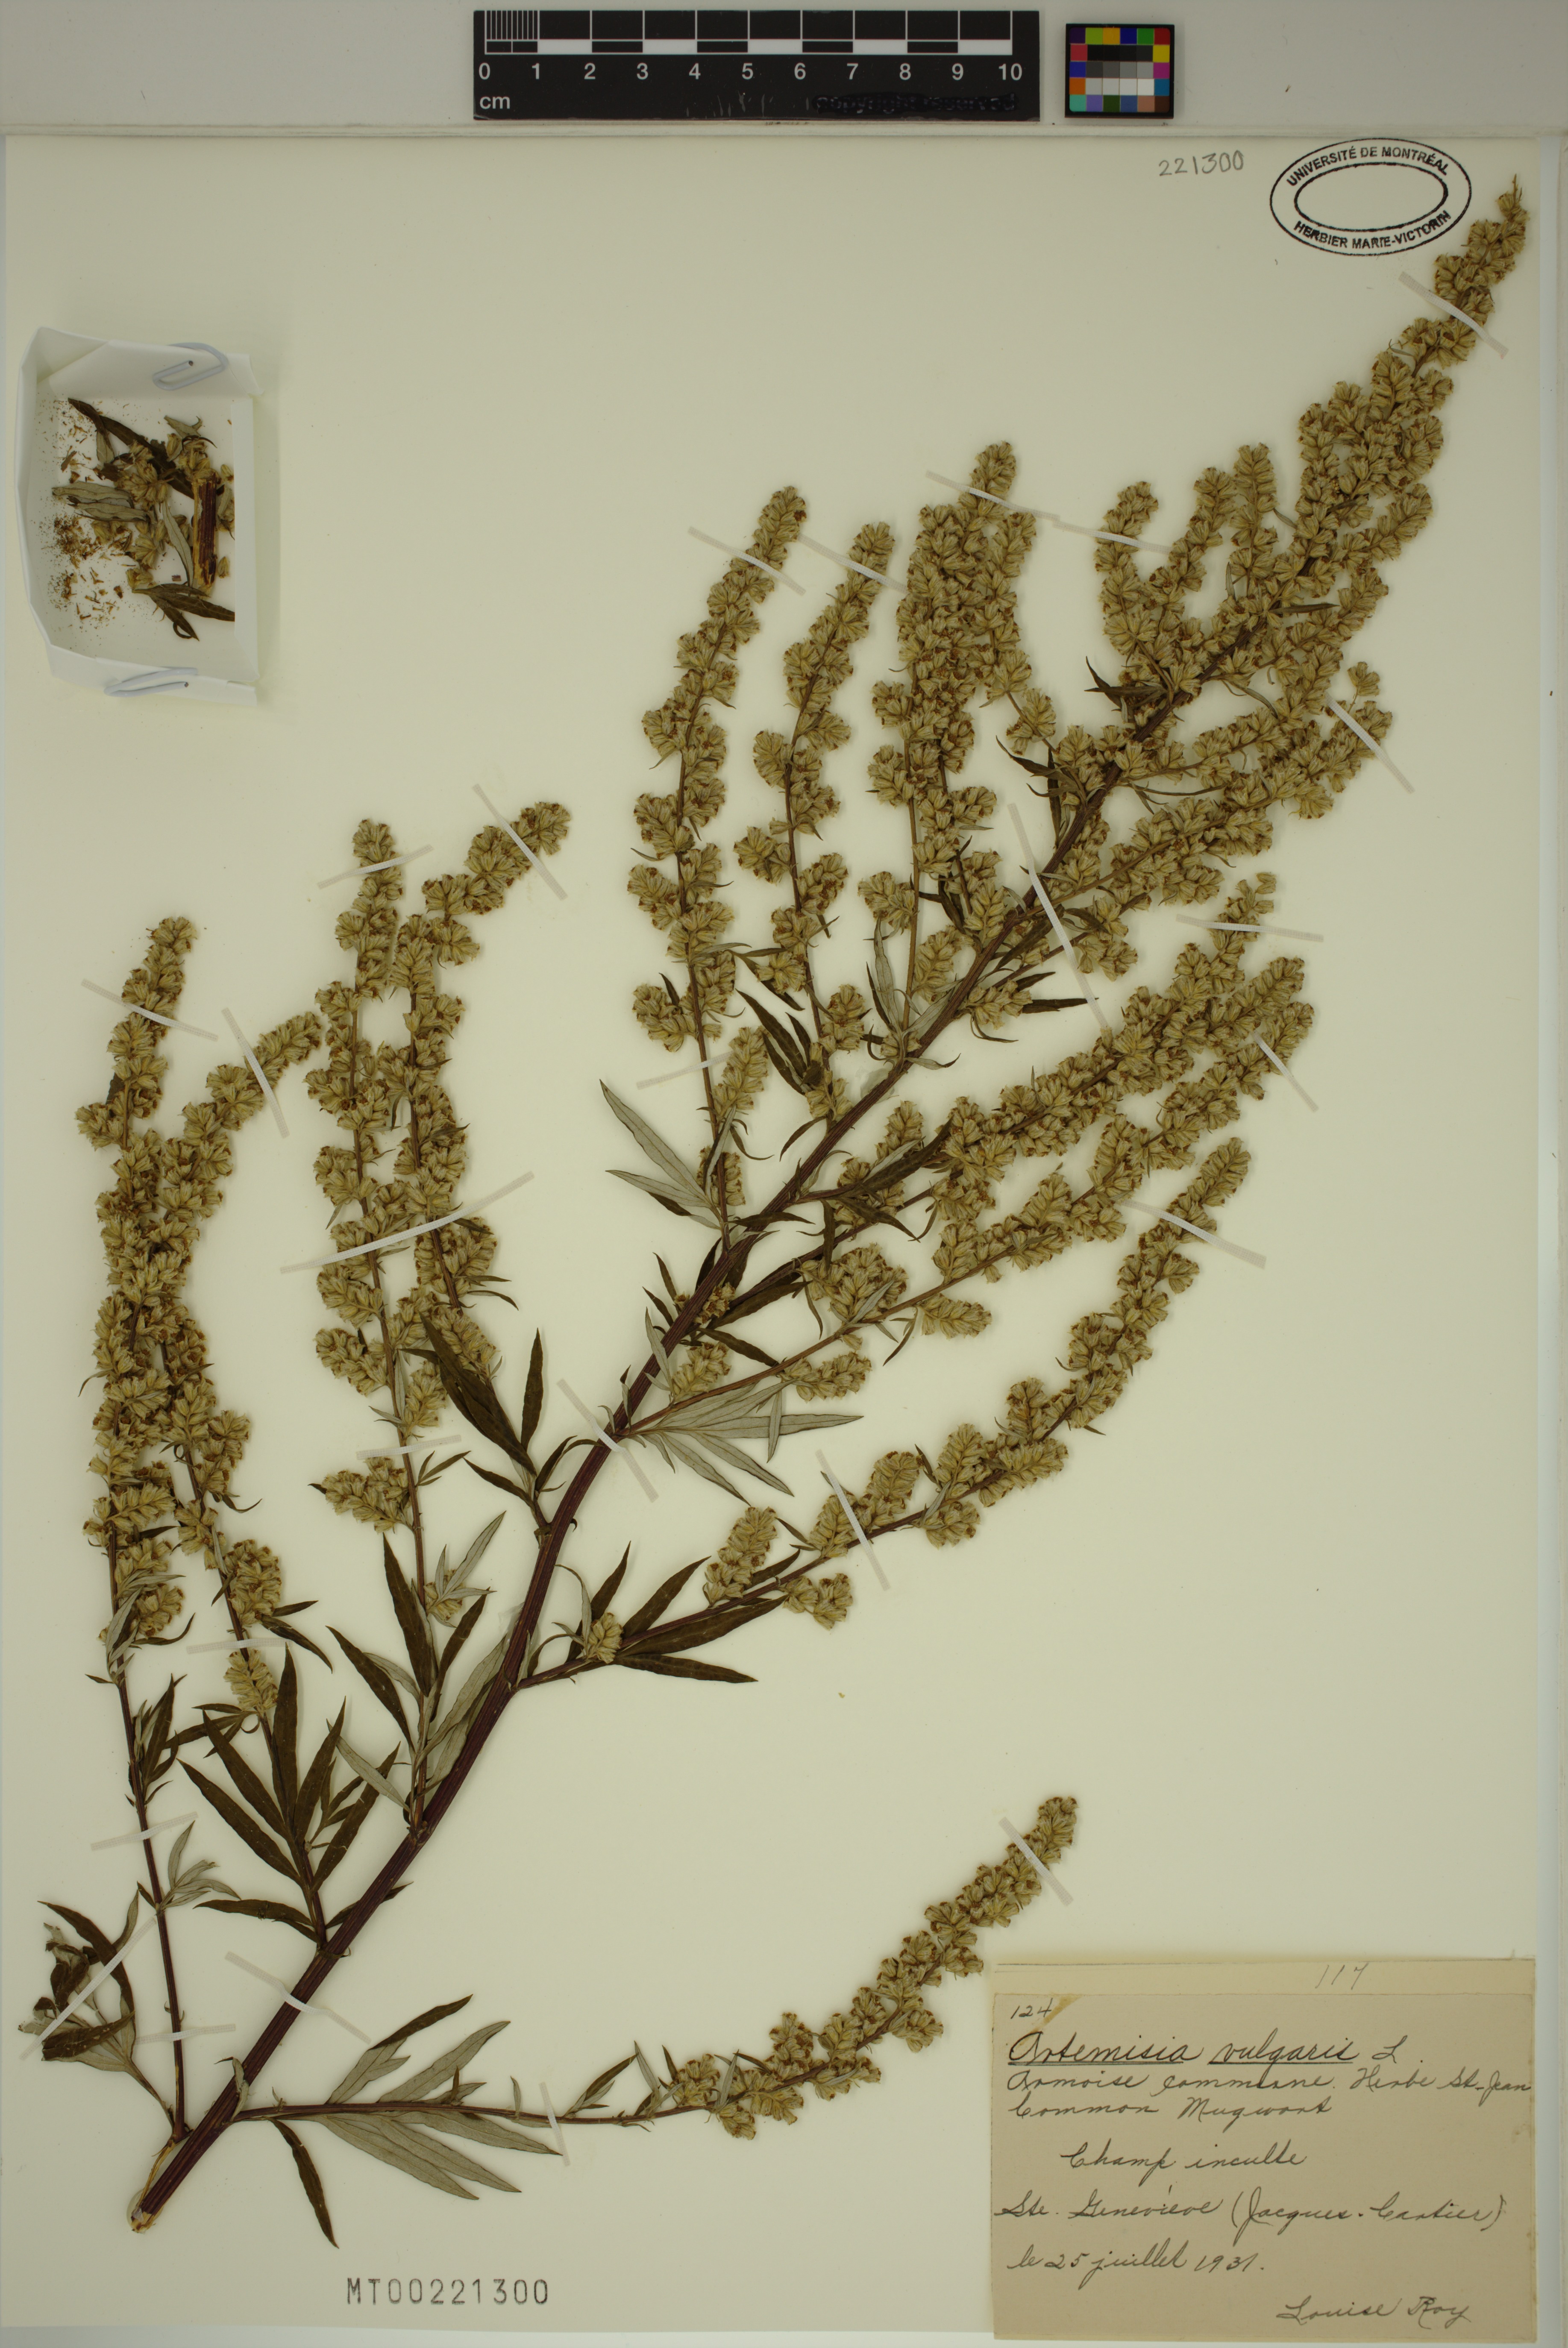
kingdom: Plantae
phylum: Tracheophyta
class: Magnoliopsida
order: Asterales
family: Asteraceae
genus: Artemisia
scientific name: Artemisia vulgaris
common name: Mugwort
